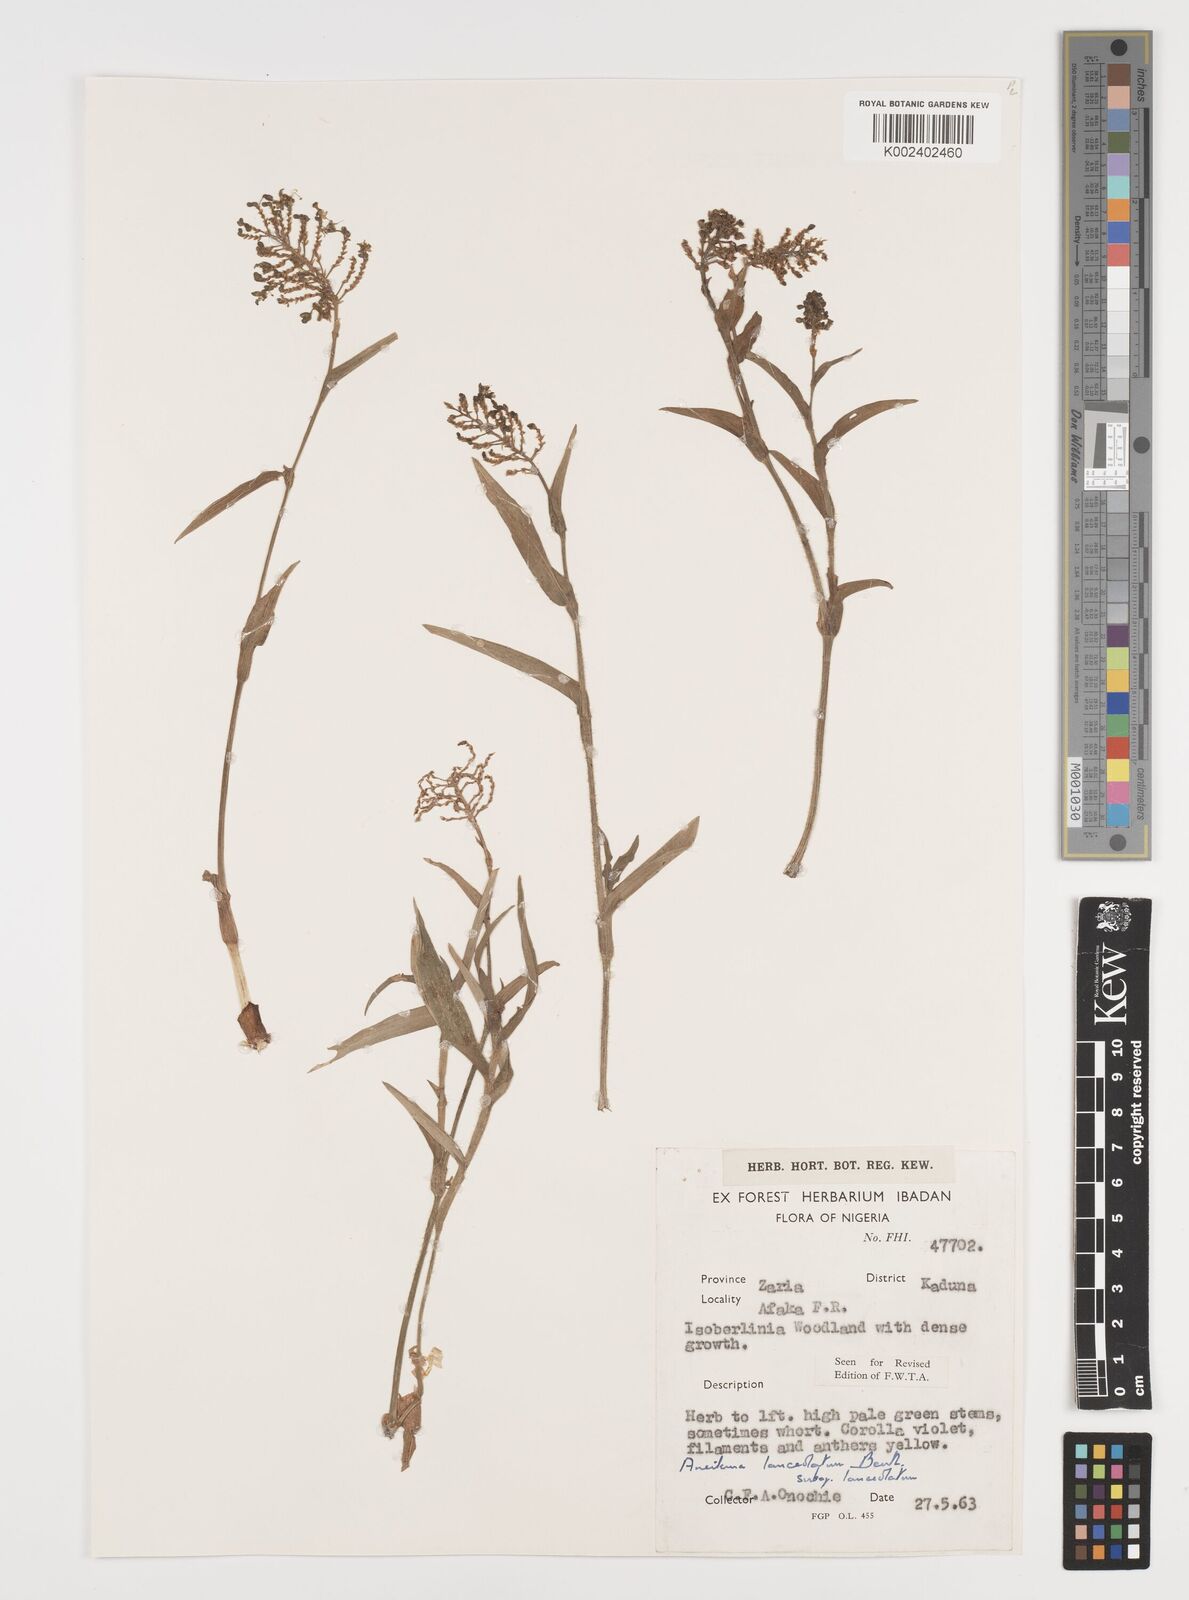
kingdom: Plantae
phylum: Tracheophyta
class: Liliopsida
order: Commelinales
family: Commelinaceae
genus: Aneilema
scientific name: Aneilema lanceolatum
